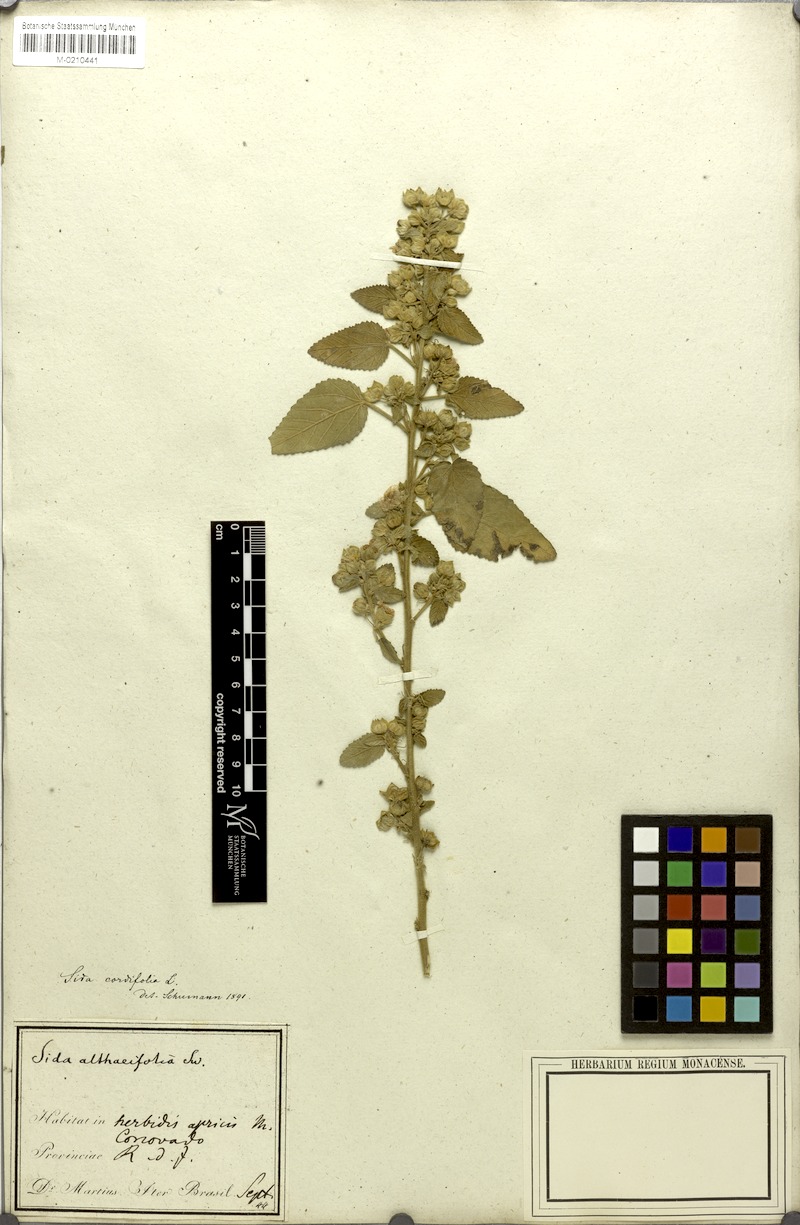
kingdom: Plantae
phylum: Tracheophyta
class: Magnoliopsida
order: Malvales
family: Malvaceae
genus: Sida
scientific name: Sida cordifolia
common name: Ilima
